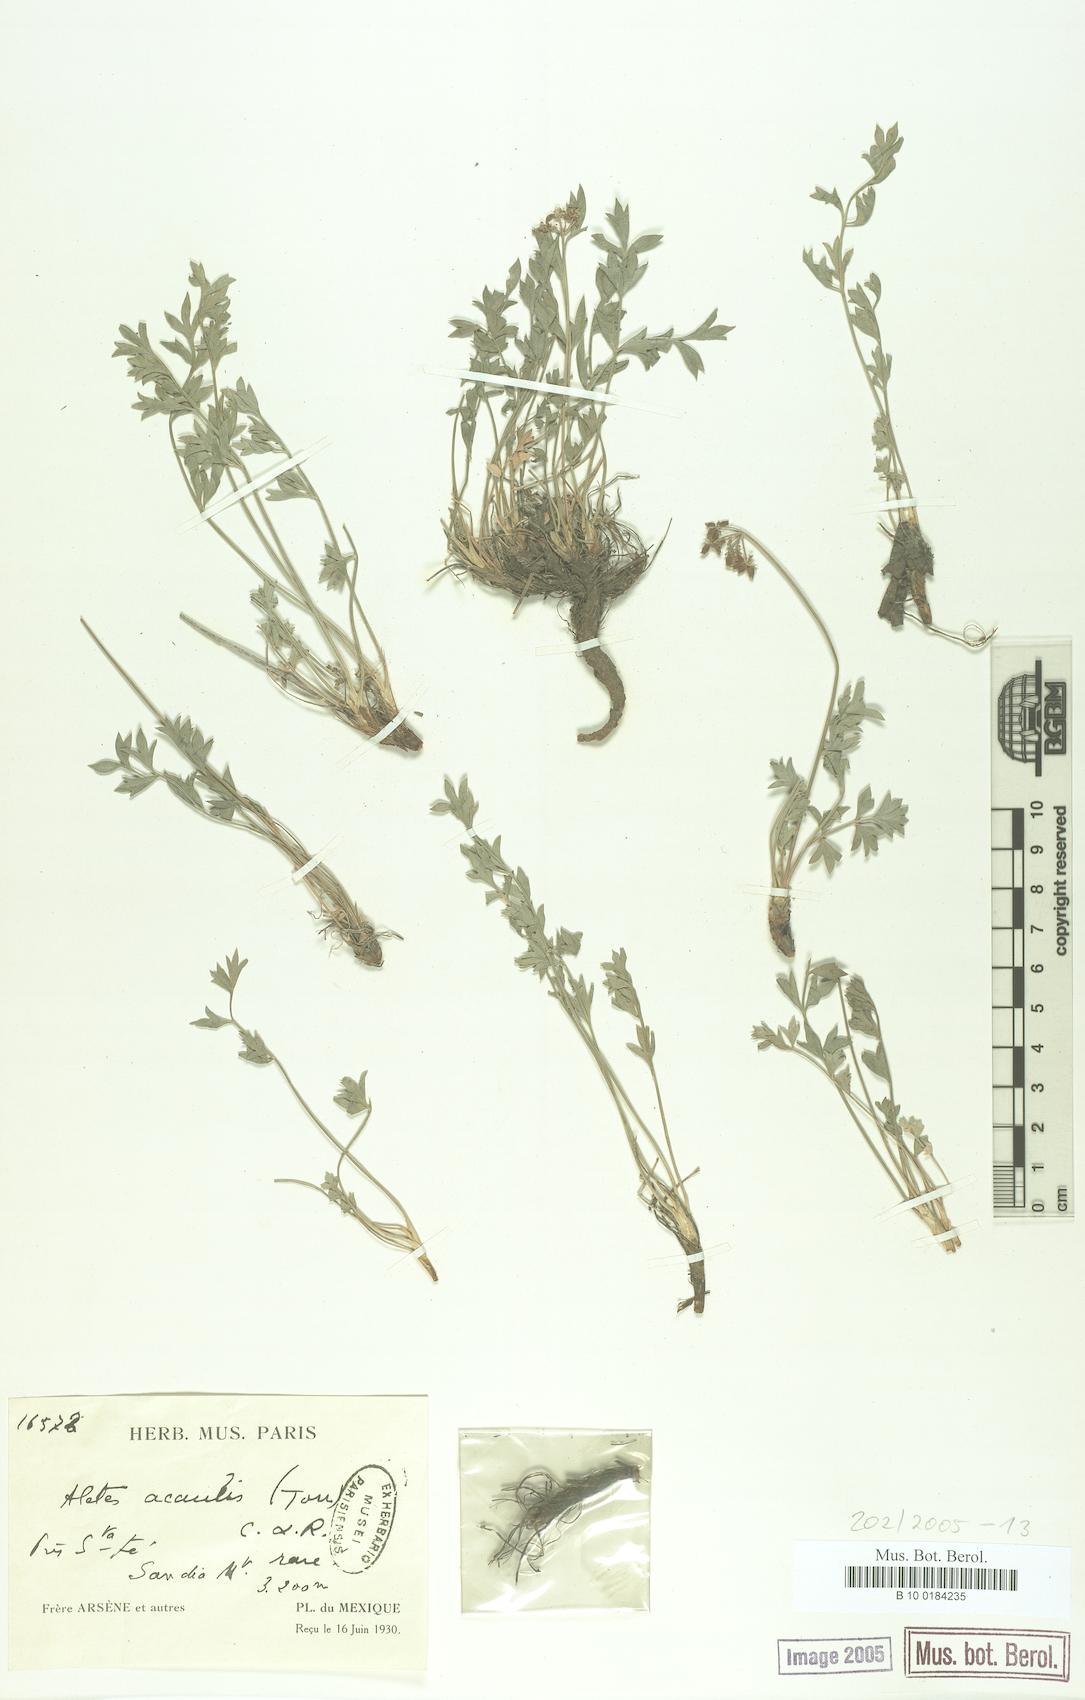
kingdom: Plantae
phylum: Tracheophyta
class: Magnoliopsida
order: Apiales
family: Apiaceae
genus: Cymopterus
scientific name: Cymopterus hallii
